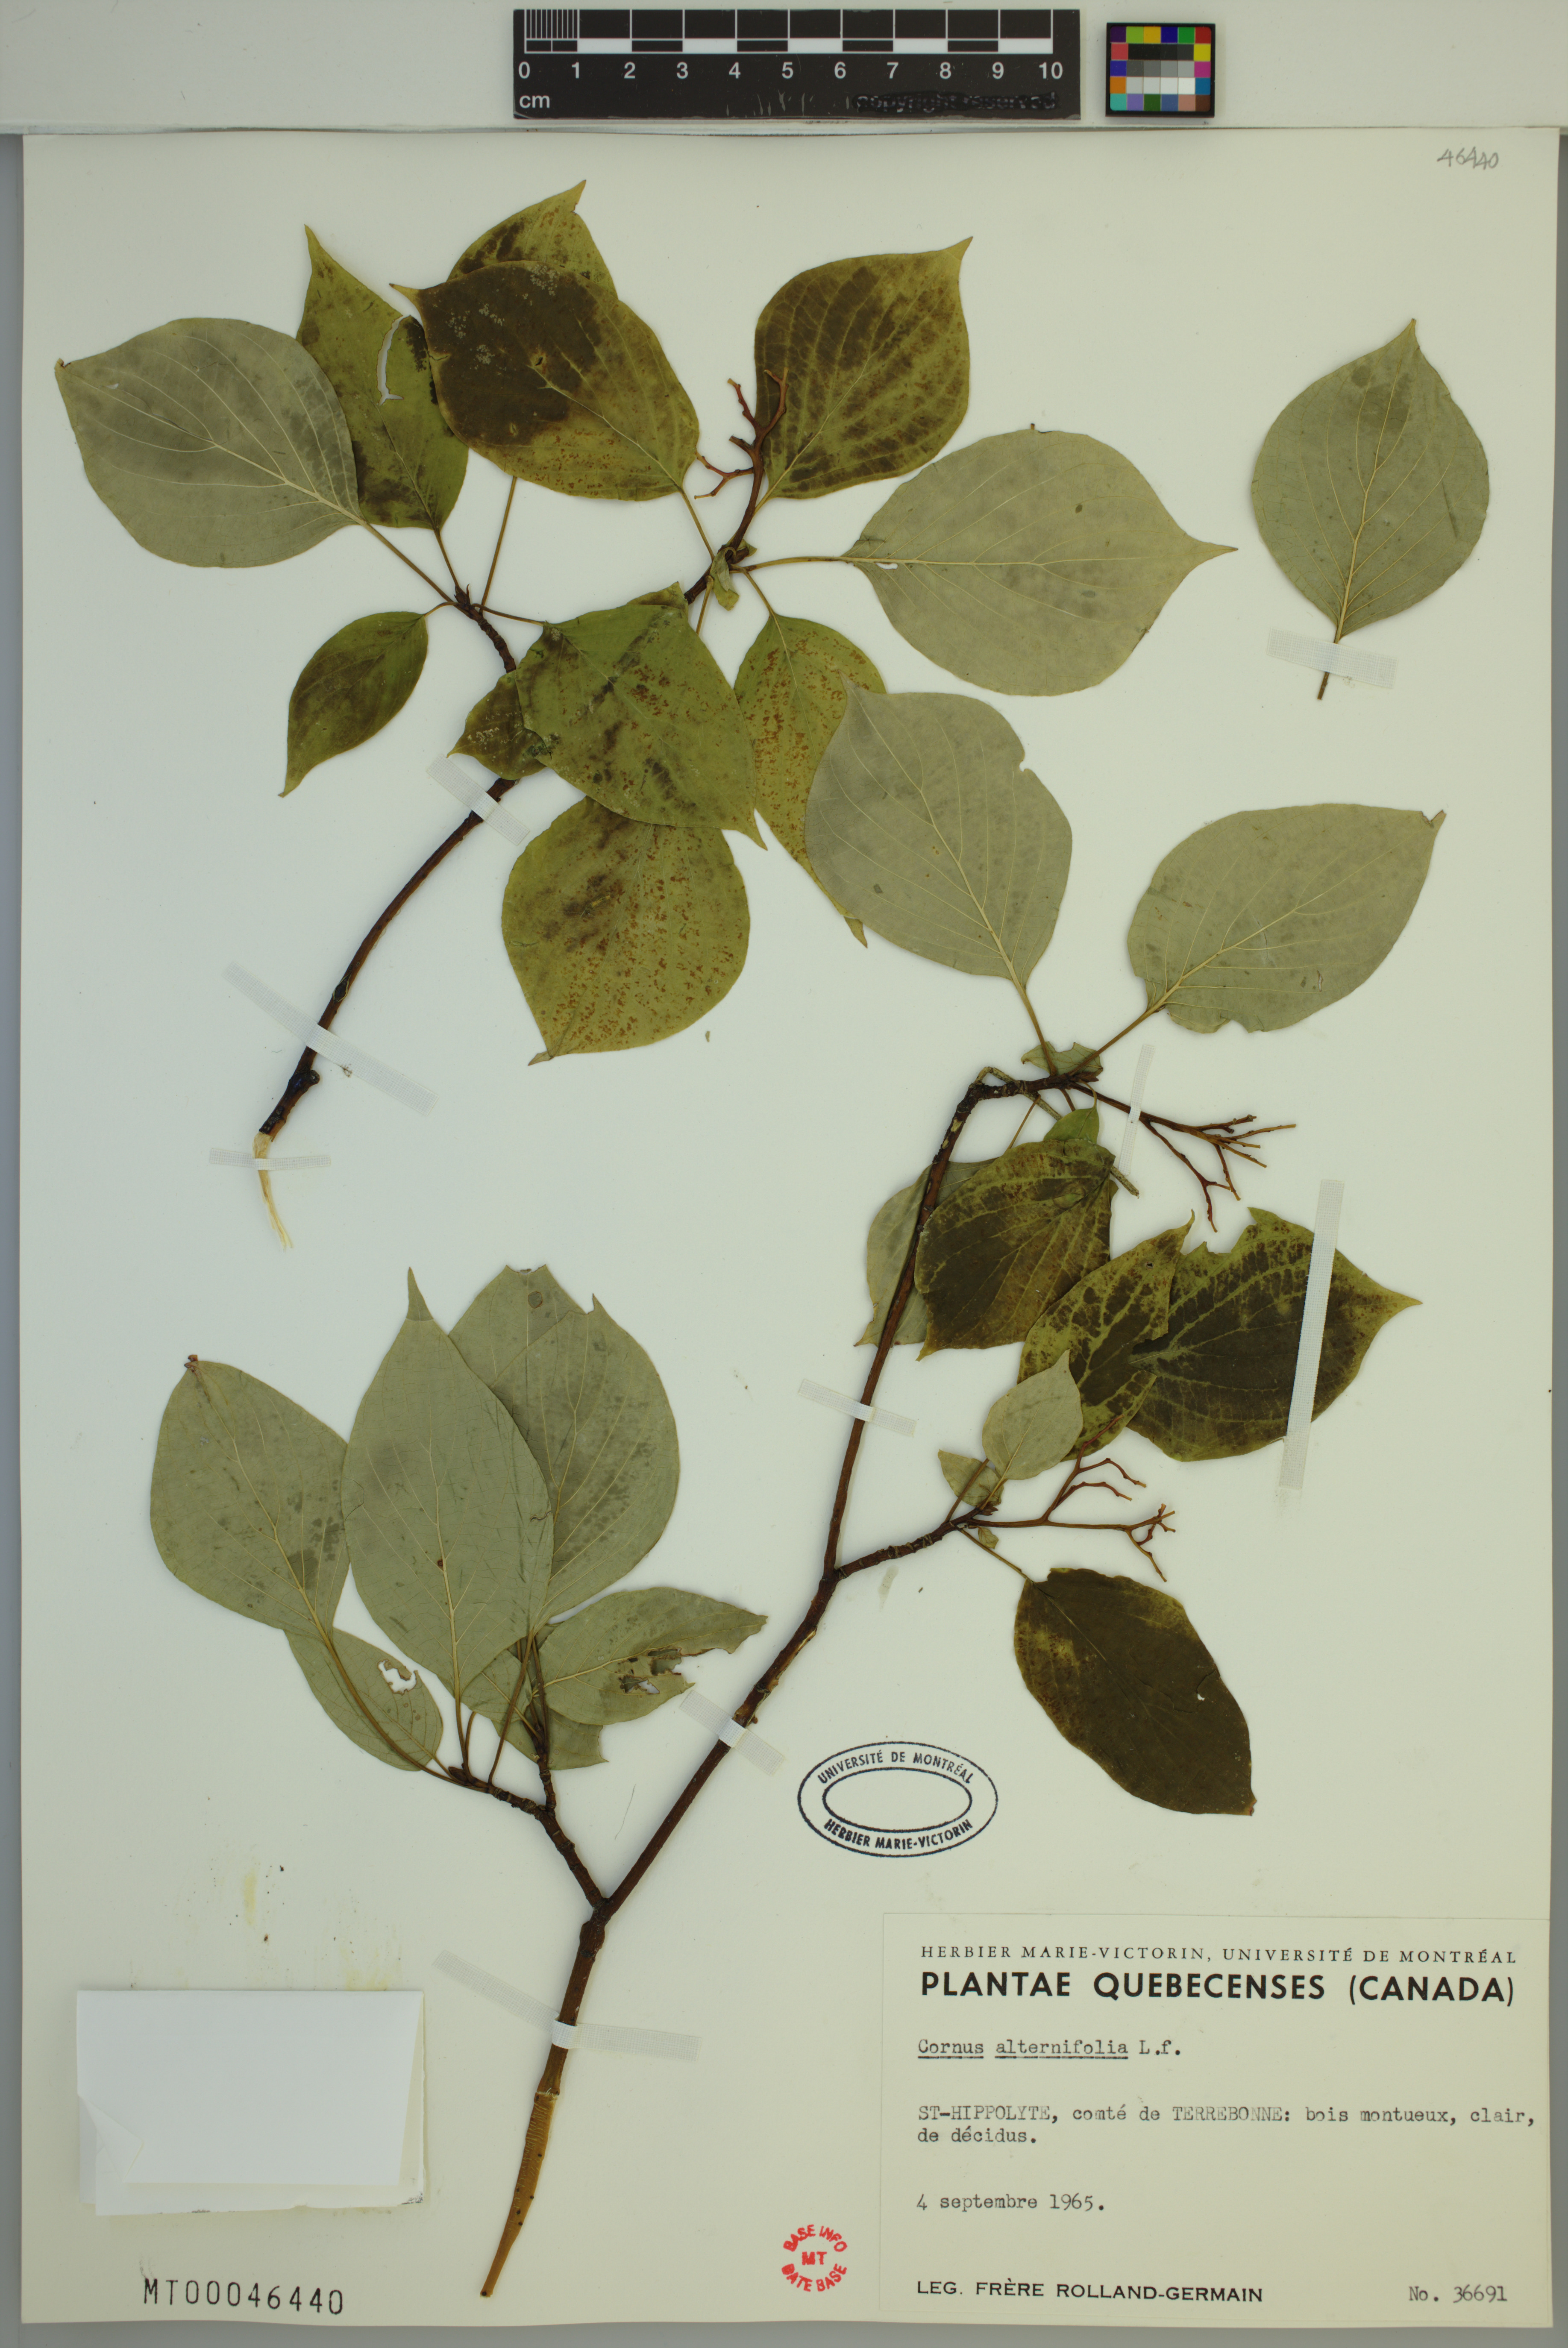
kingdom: Plantae
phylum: Tracheophyta
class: Magnoliopsida
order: Cornales
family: Cornaceae
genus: Cornus
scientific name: Cornus alternifolia
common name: Pagoda dogwood
